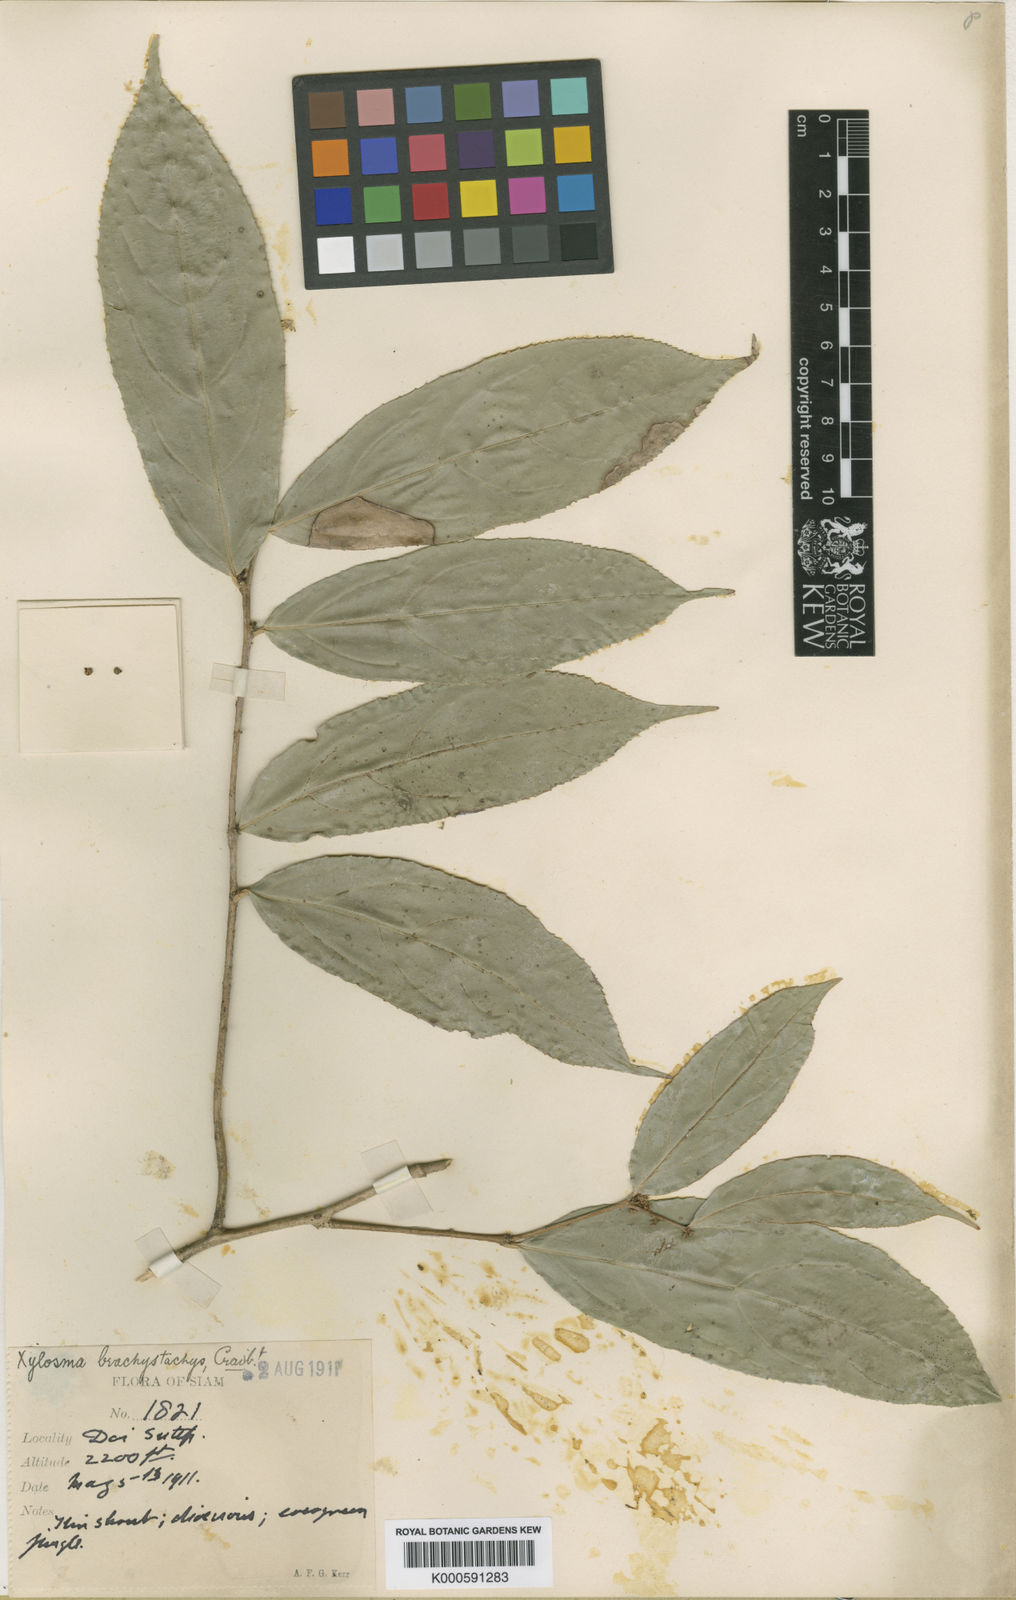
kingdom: Plantae
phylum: Tracheophyta
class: Magnoliopsida
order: Malpighiales
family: Salicaceae
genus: Xylosma
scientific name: Xylosma brachystachys
